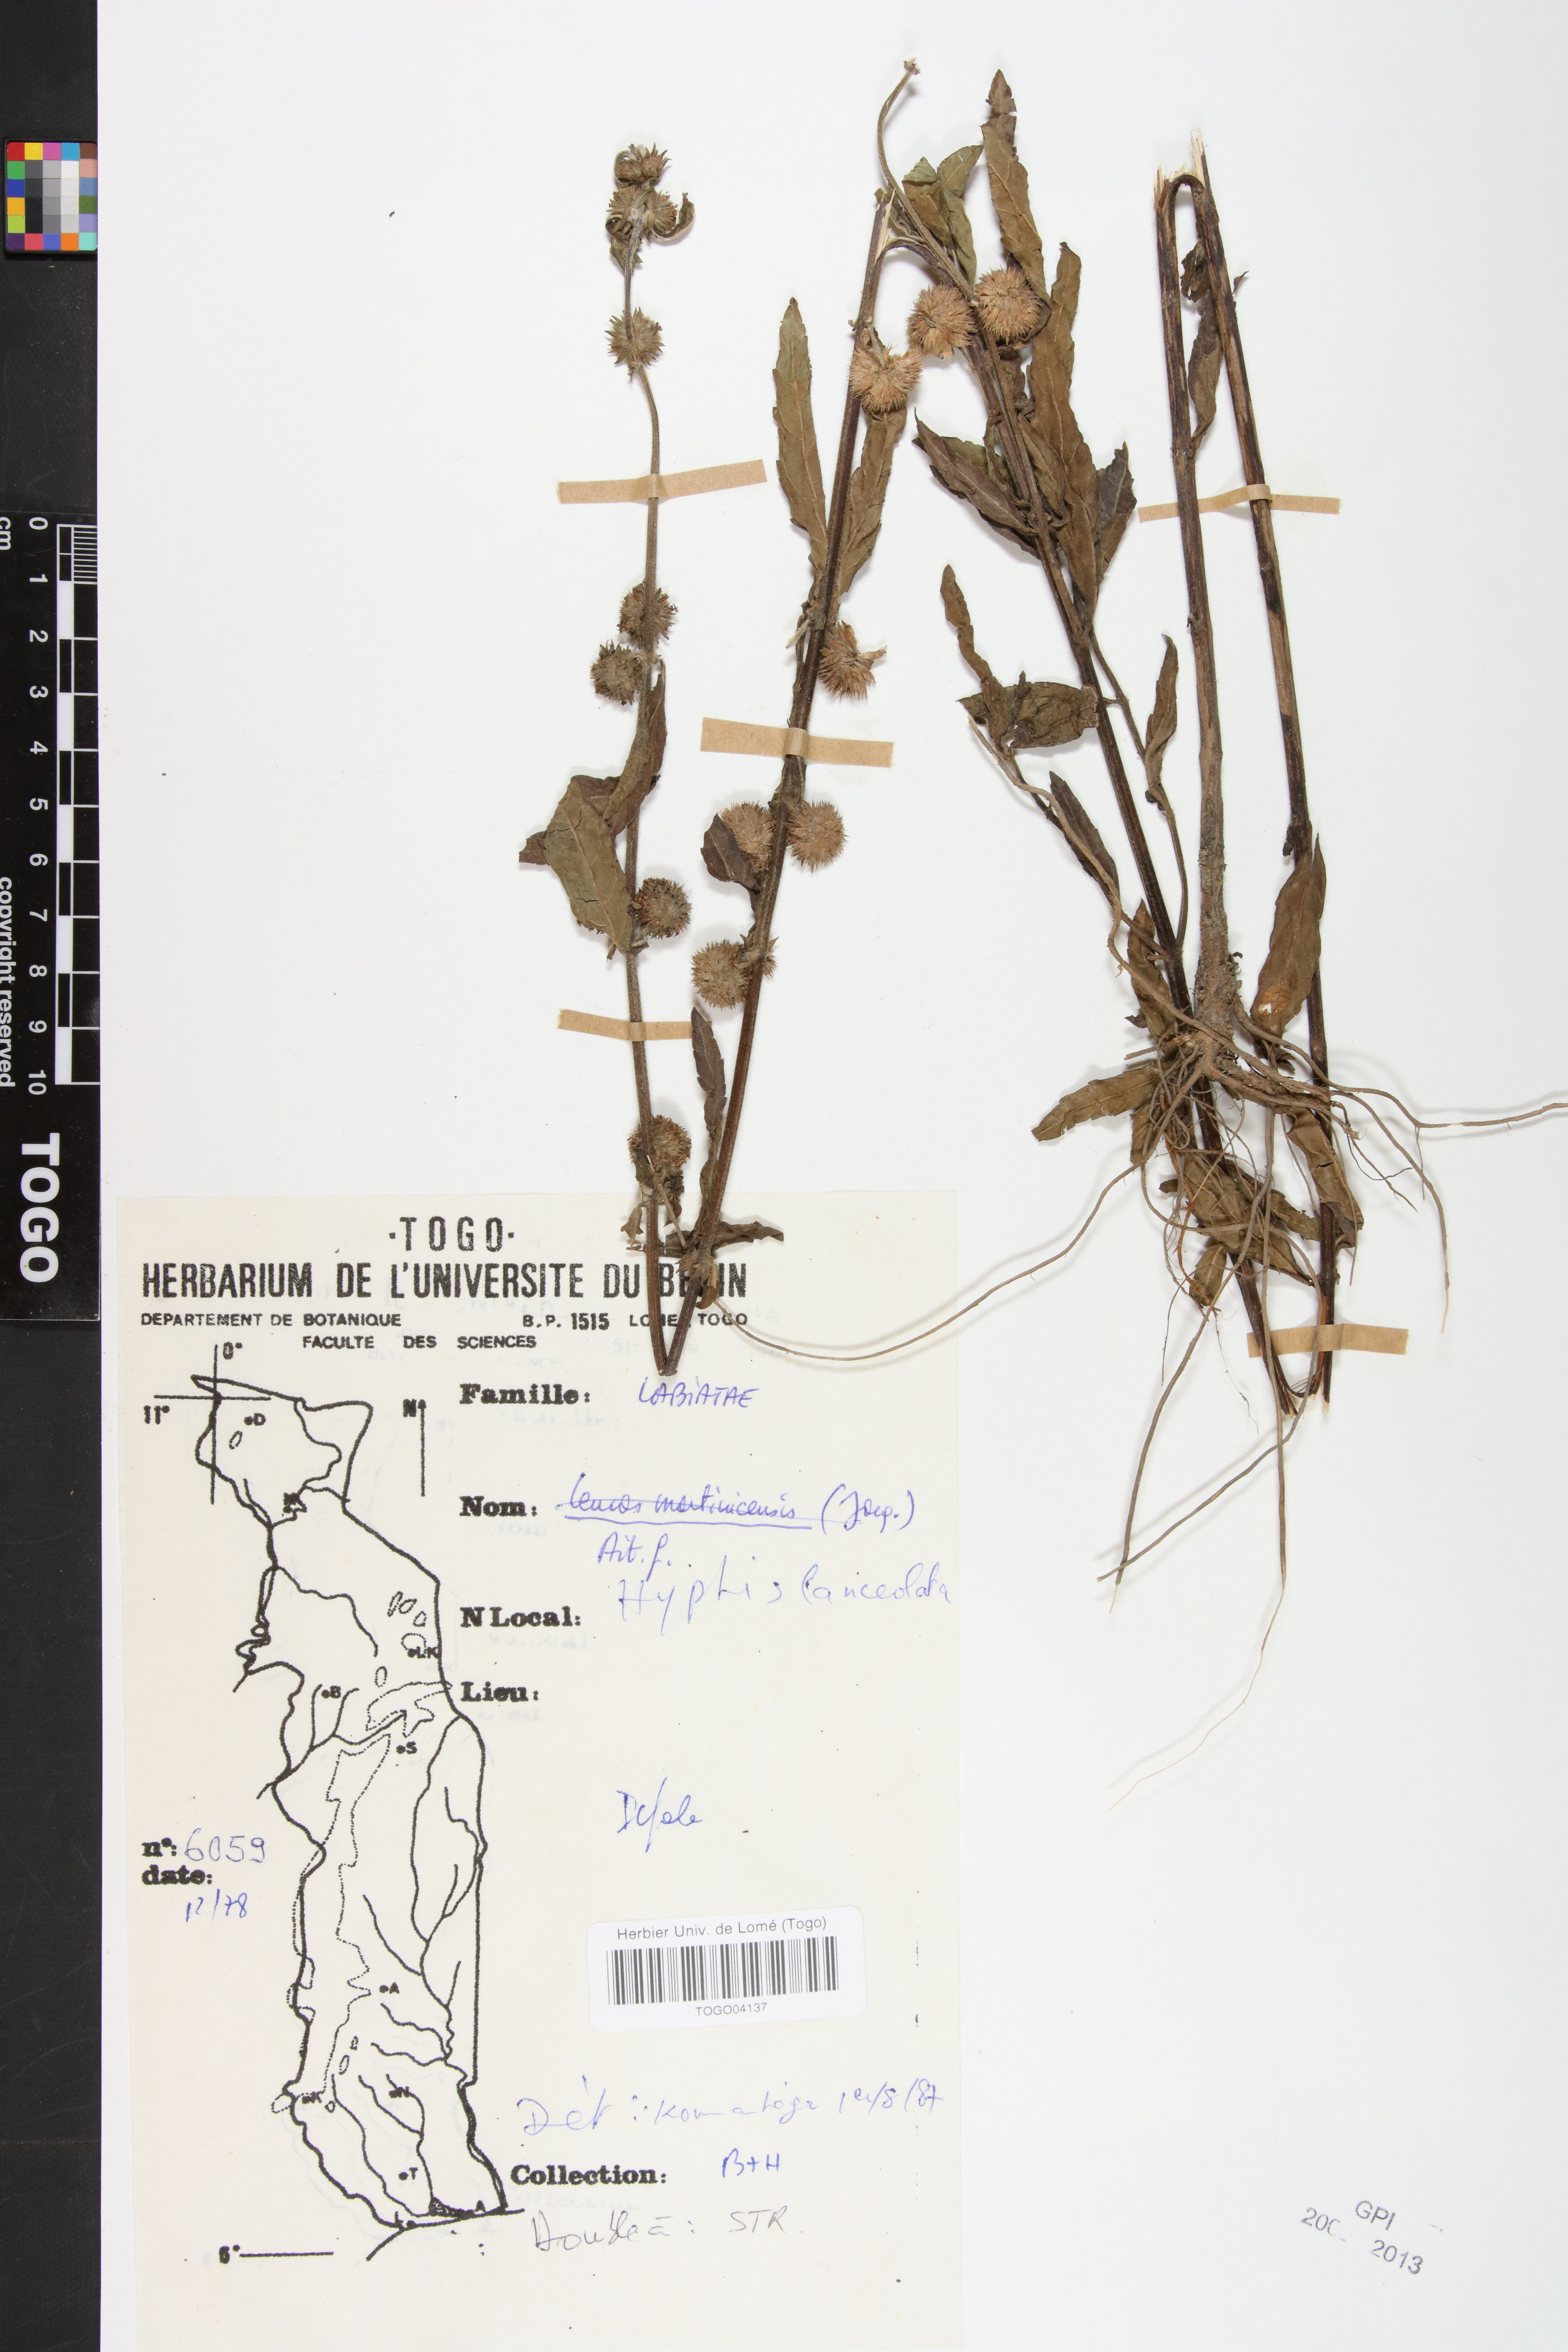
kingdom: Plantae
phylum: Tracheophyta
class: Magnoliopsida
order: Lamiales
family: Lamiaceae
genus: Hyptis
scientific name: Hyptis lanceolata
